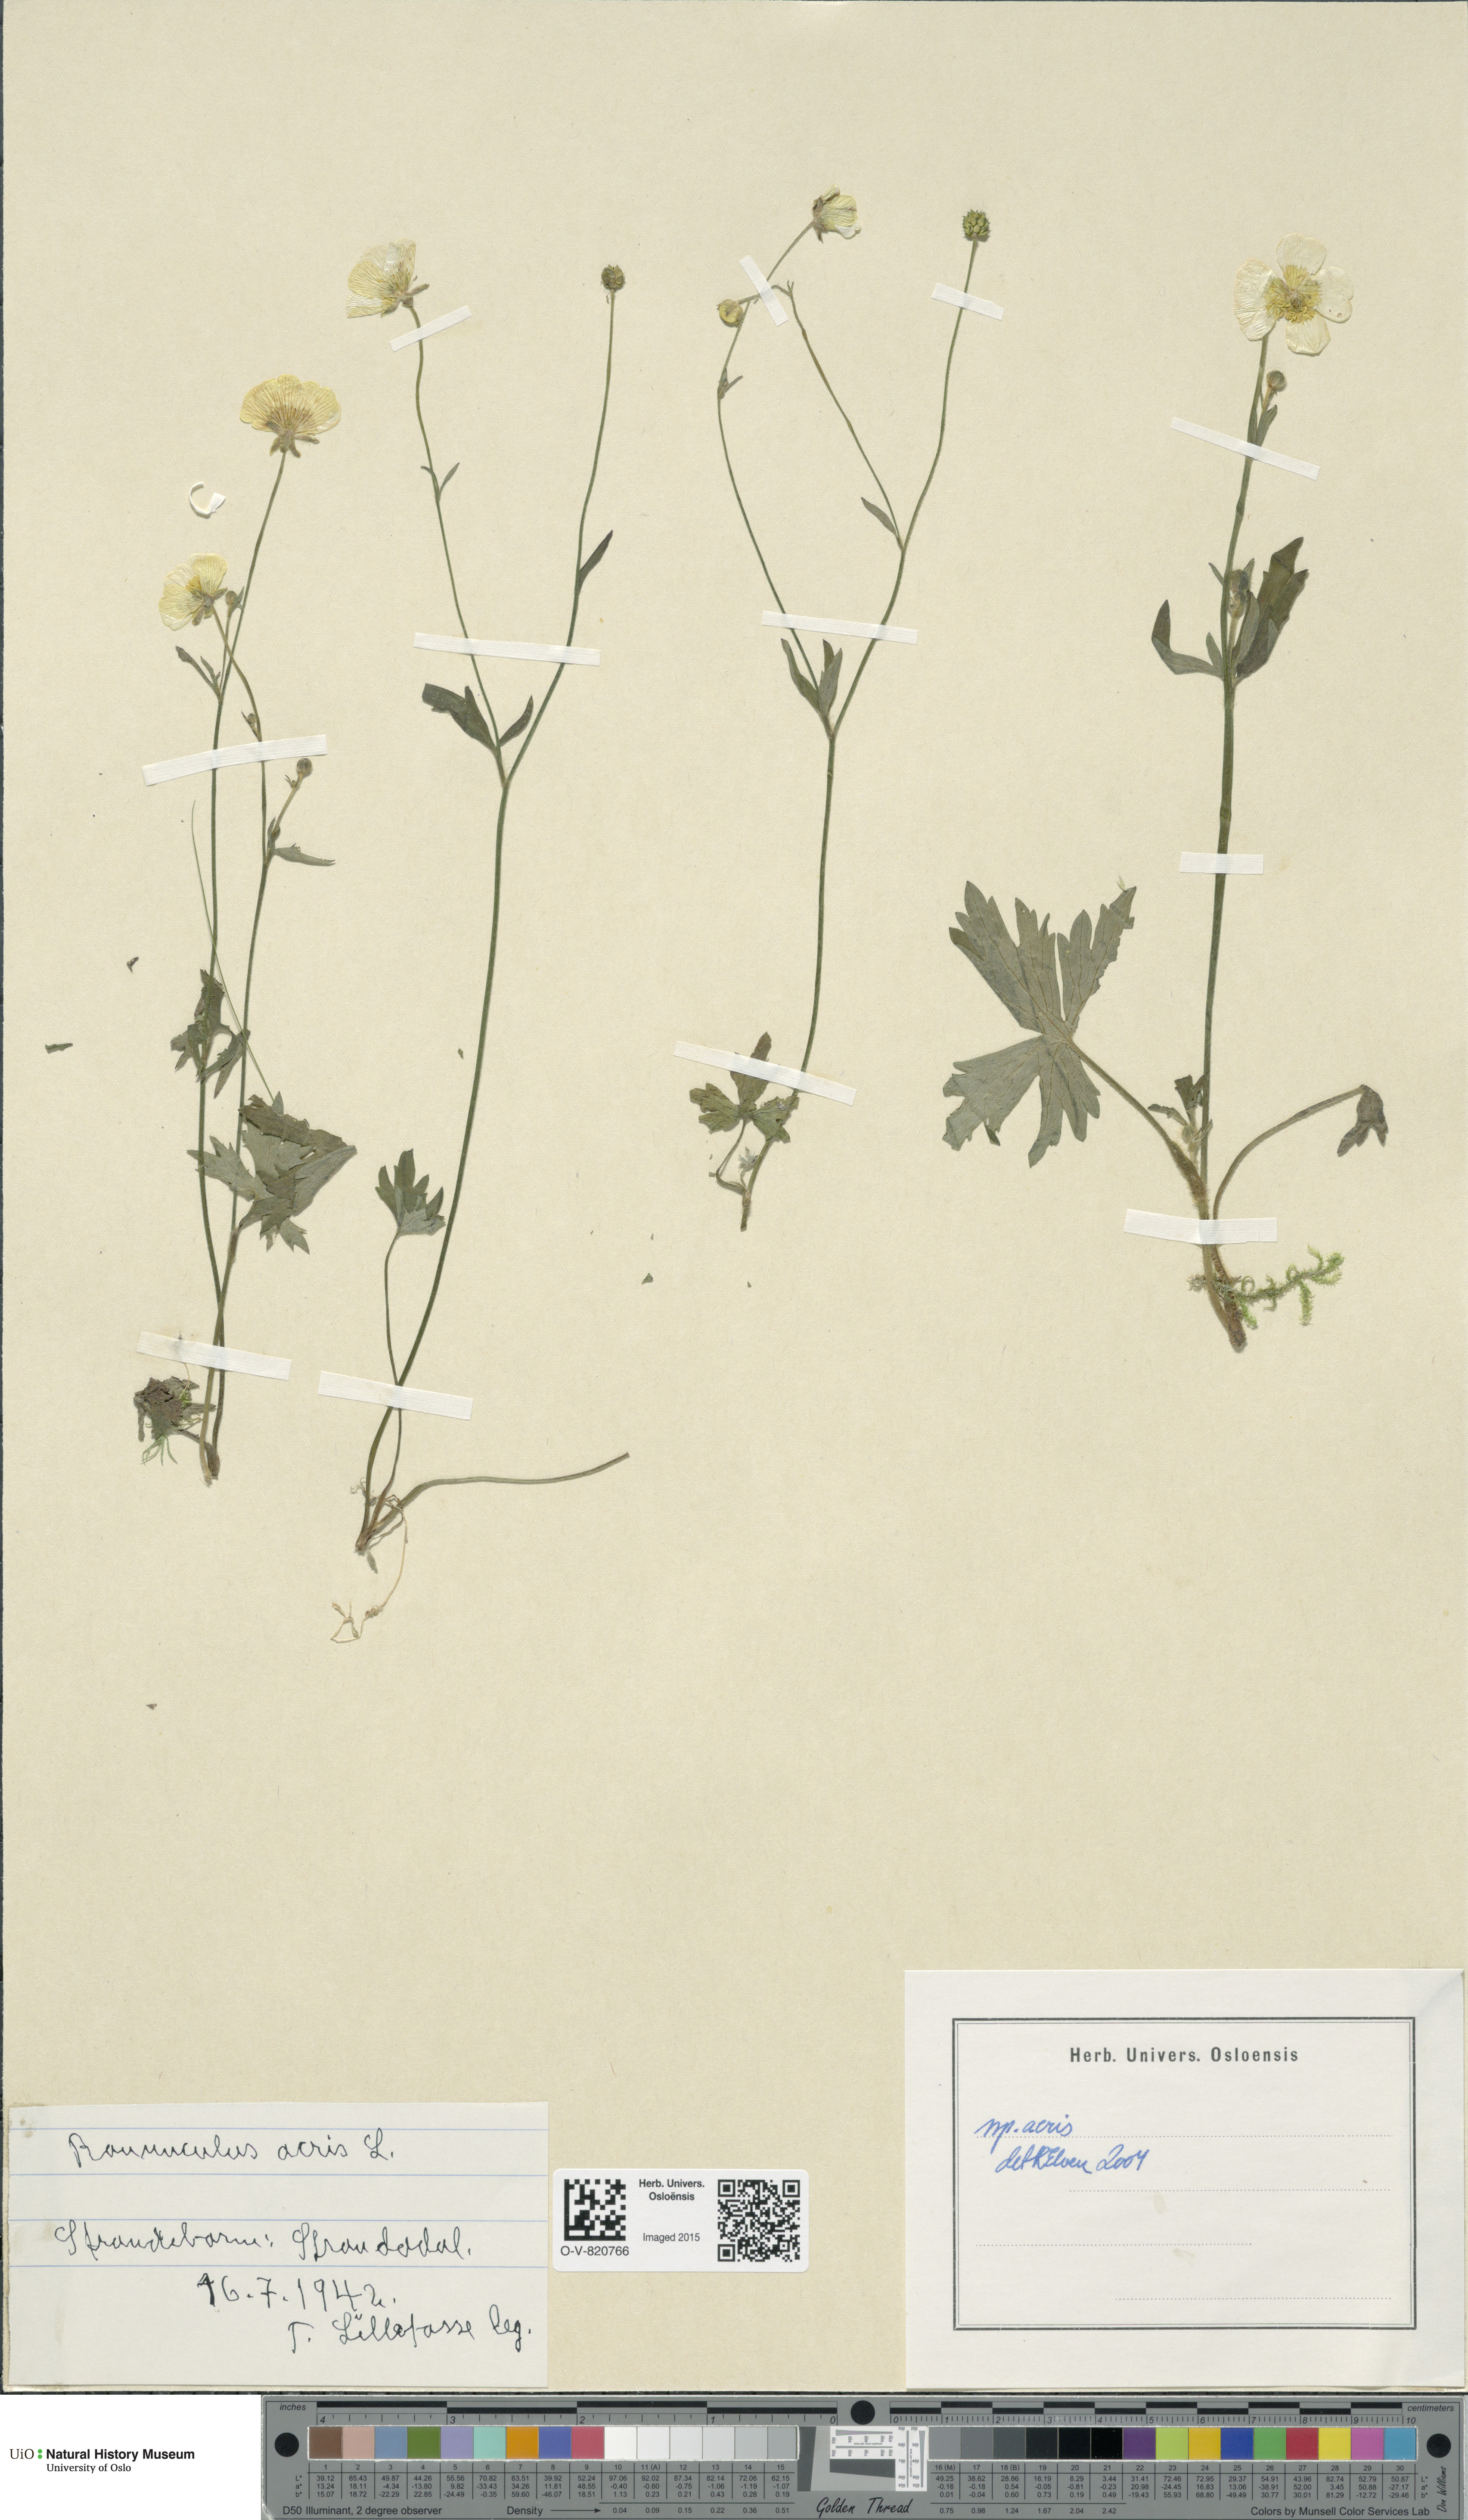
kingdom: Plantae
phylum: Tracheophyta
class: Magnoliopsida
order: Ranunculales
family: Ranunculaceae
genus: Ranunculus
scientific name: Ranunculus acris
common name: Meadow buttercup
